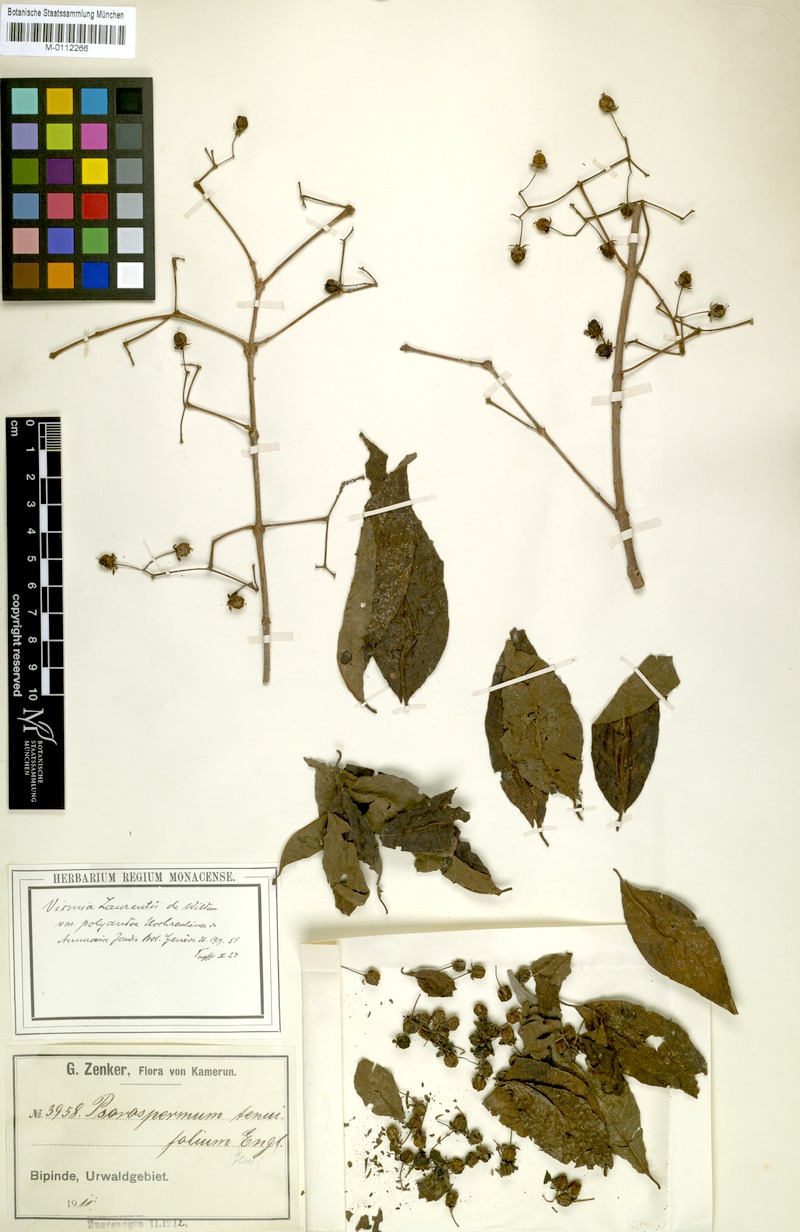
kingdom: Plantae
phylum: Tracheophyta
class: Magnoliopsida
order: Malpighiales
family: Hypericaceae
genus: Psorospermum
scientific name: Psorospermum laurentii
